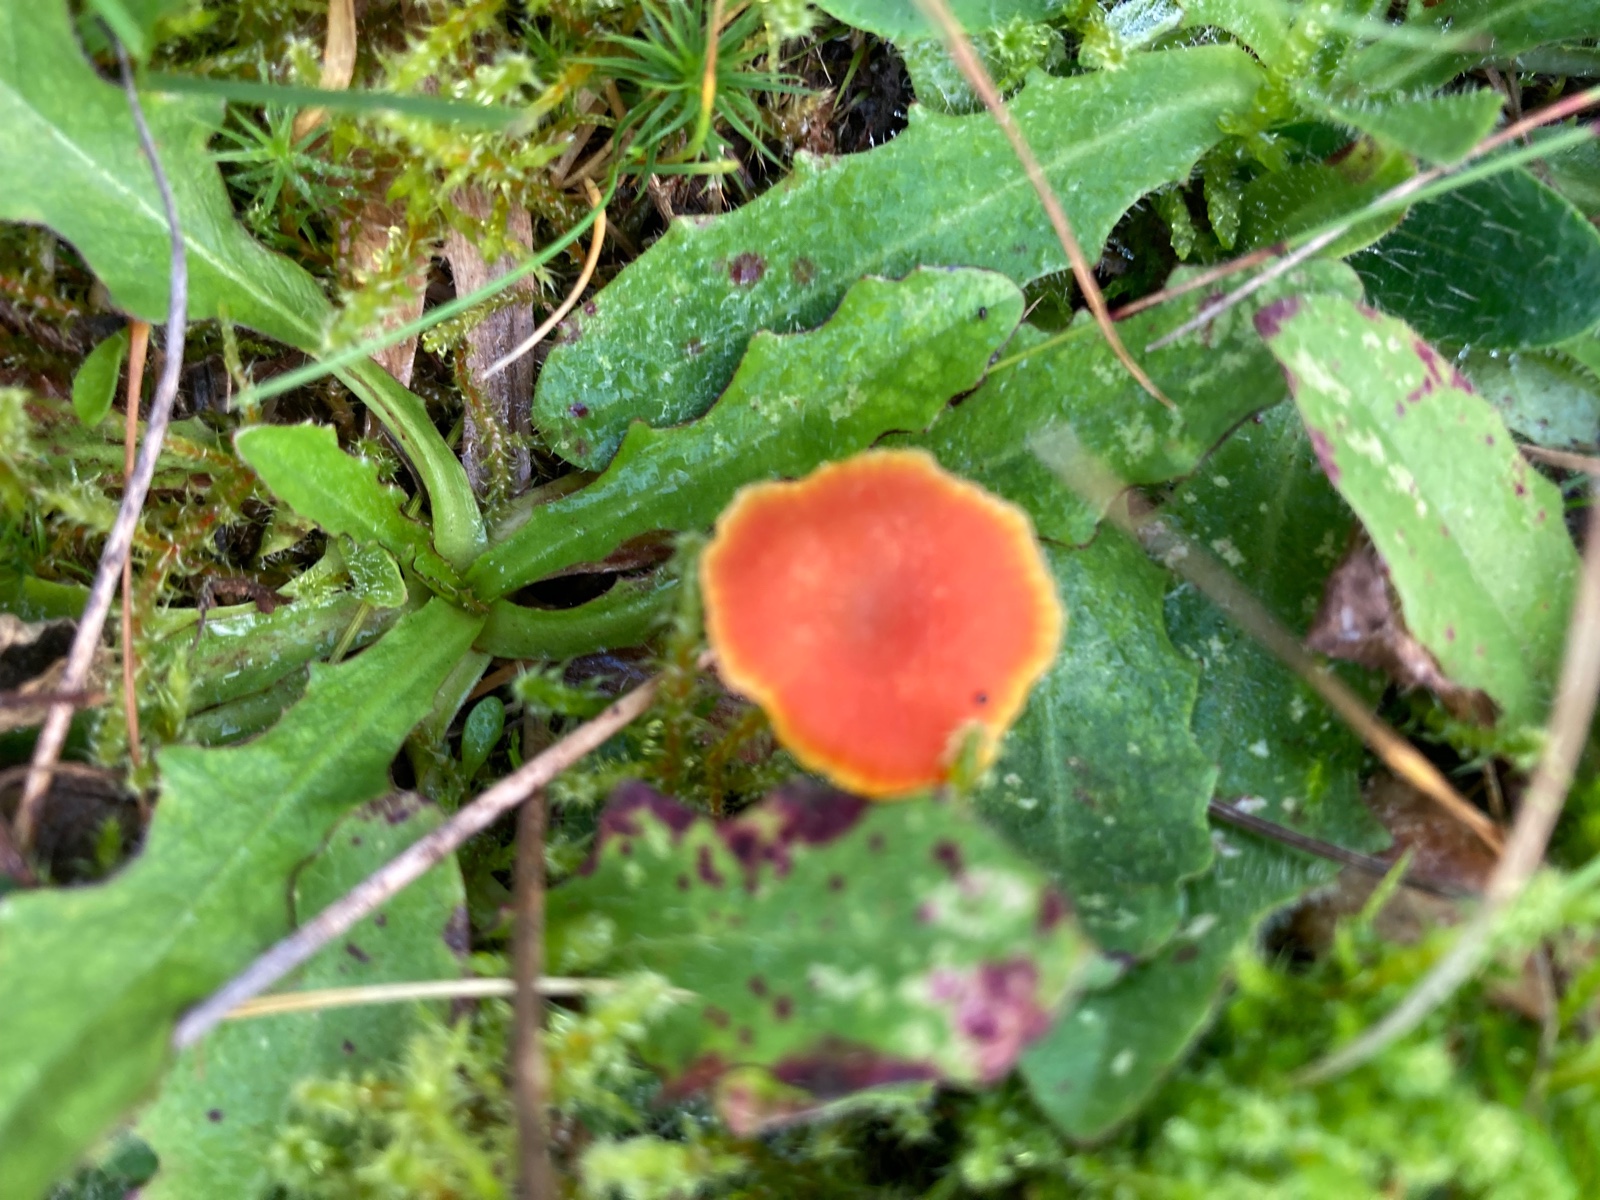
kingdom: Fungi
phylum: Basidiomycota
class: Agaricomycetes
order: Agaricales
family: Hygrophoraceae
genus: Hygrocybe
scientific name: Hygrocybe miniata
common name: mønje-vokshat
